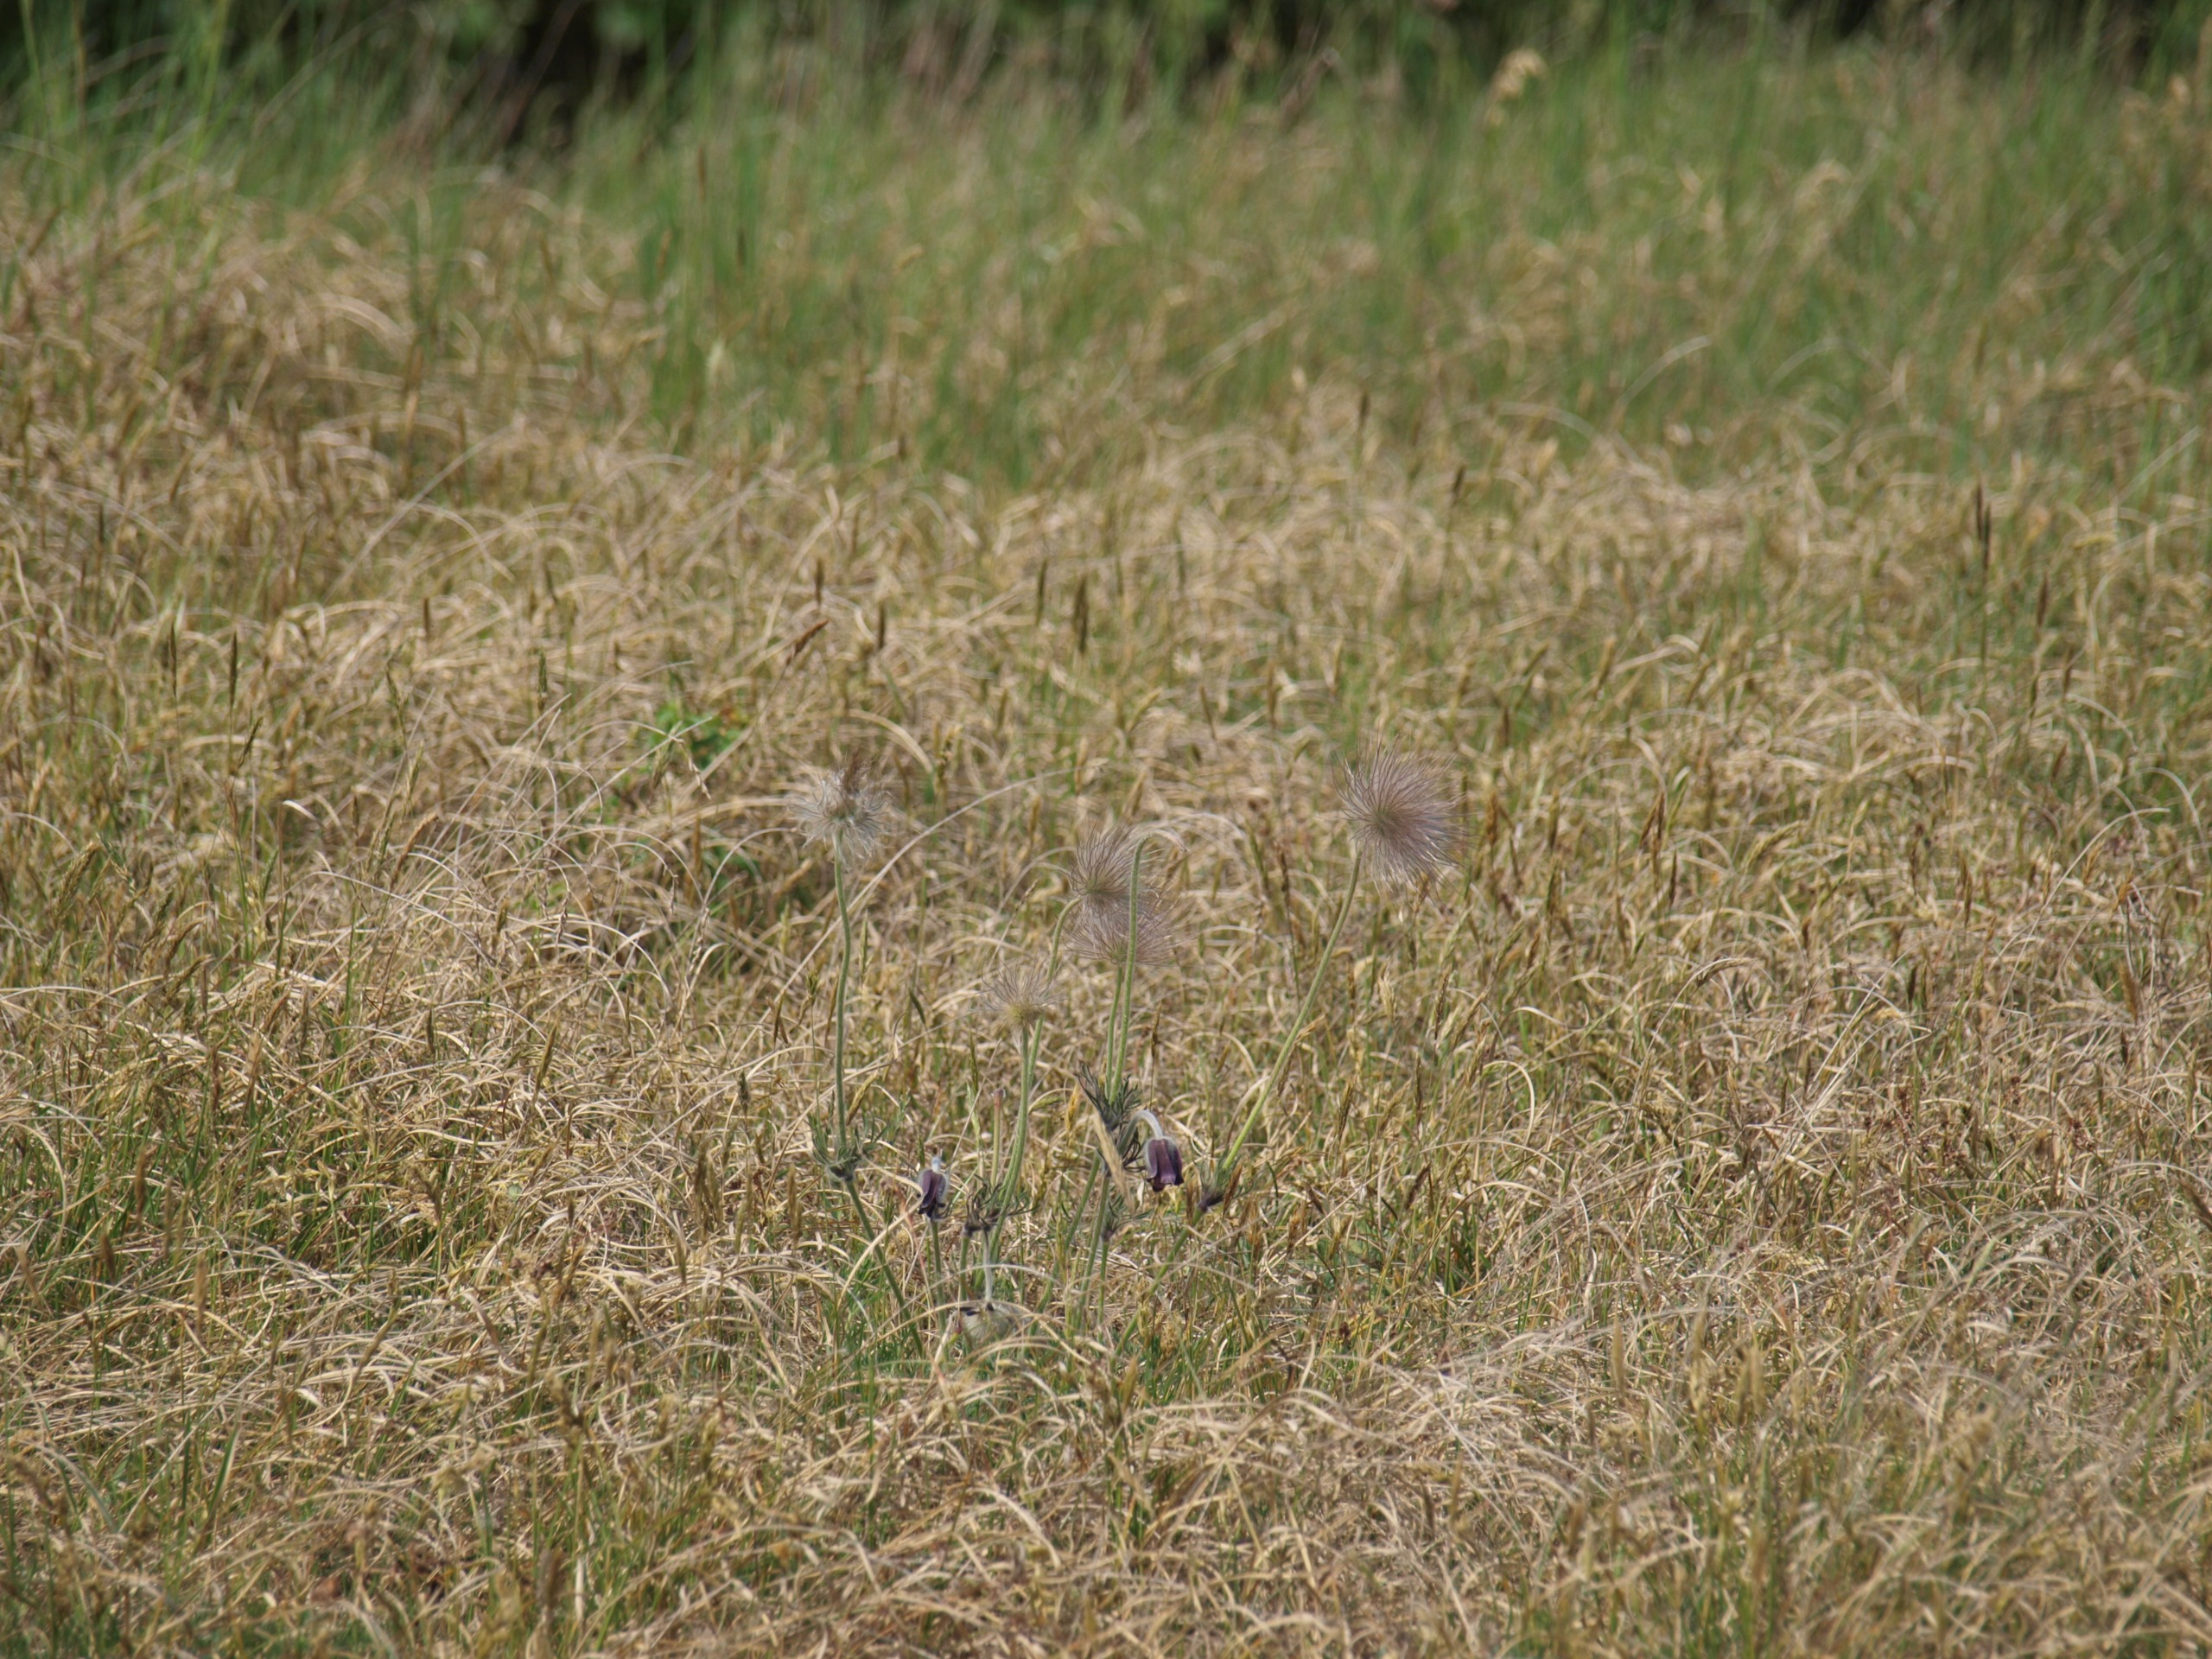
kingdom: Plantae
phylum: Tracheophyta
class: Magnoliopsida
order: Ranunculales
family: Ranunculaceae
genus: Pulsatilla
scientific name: Pulsatilla pratensis
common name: Nikkende kobjælde
